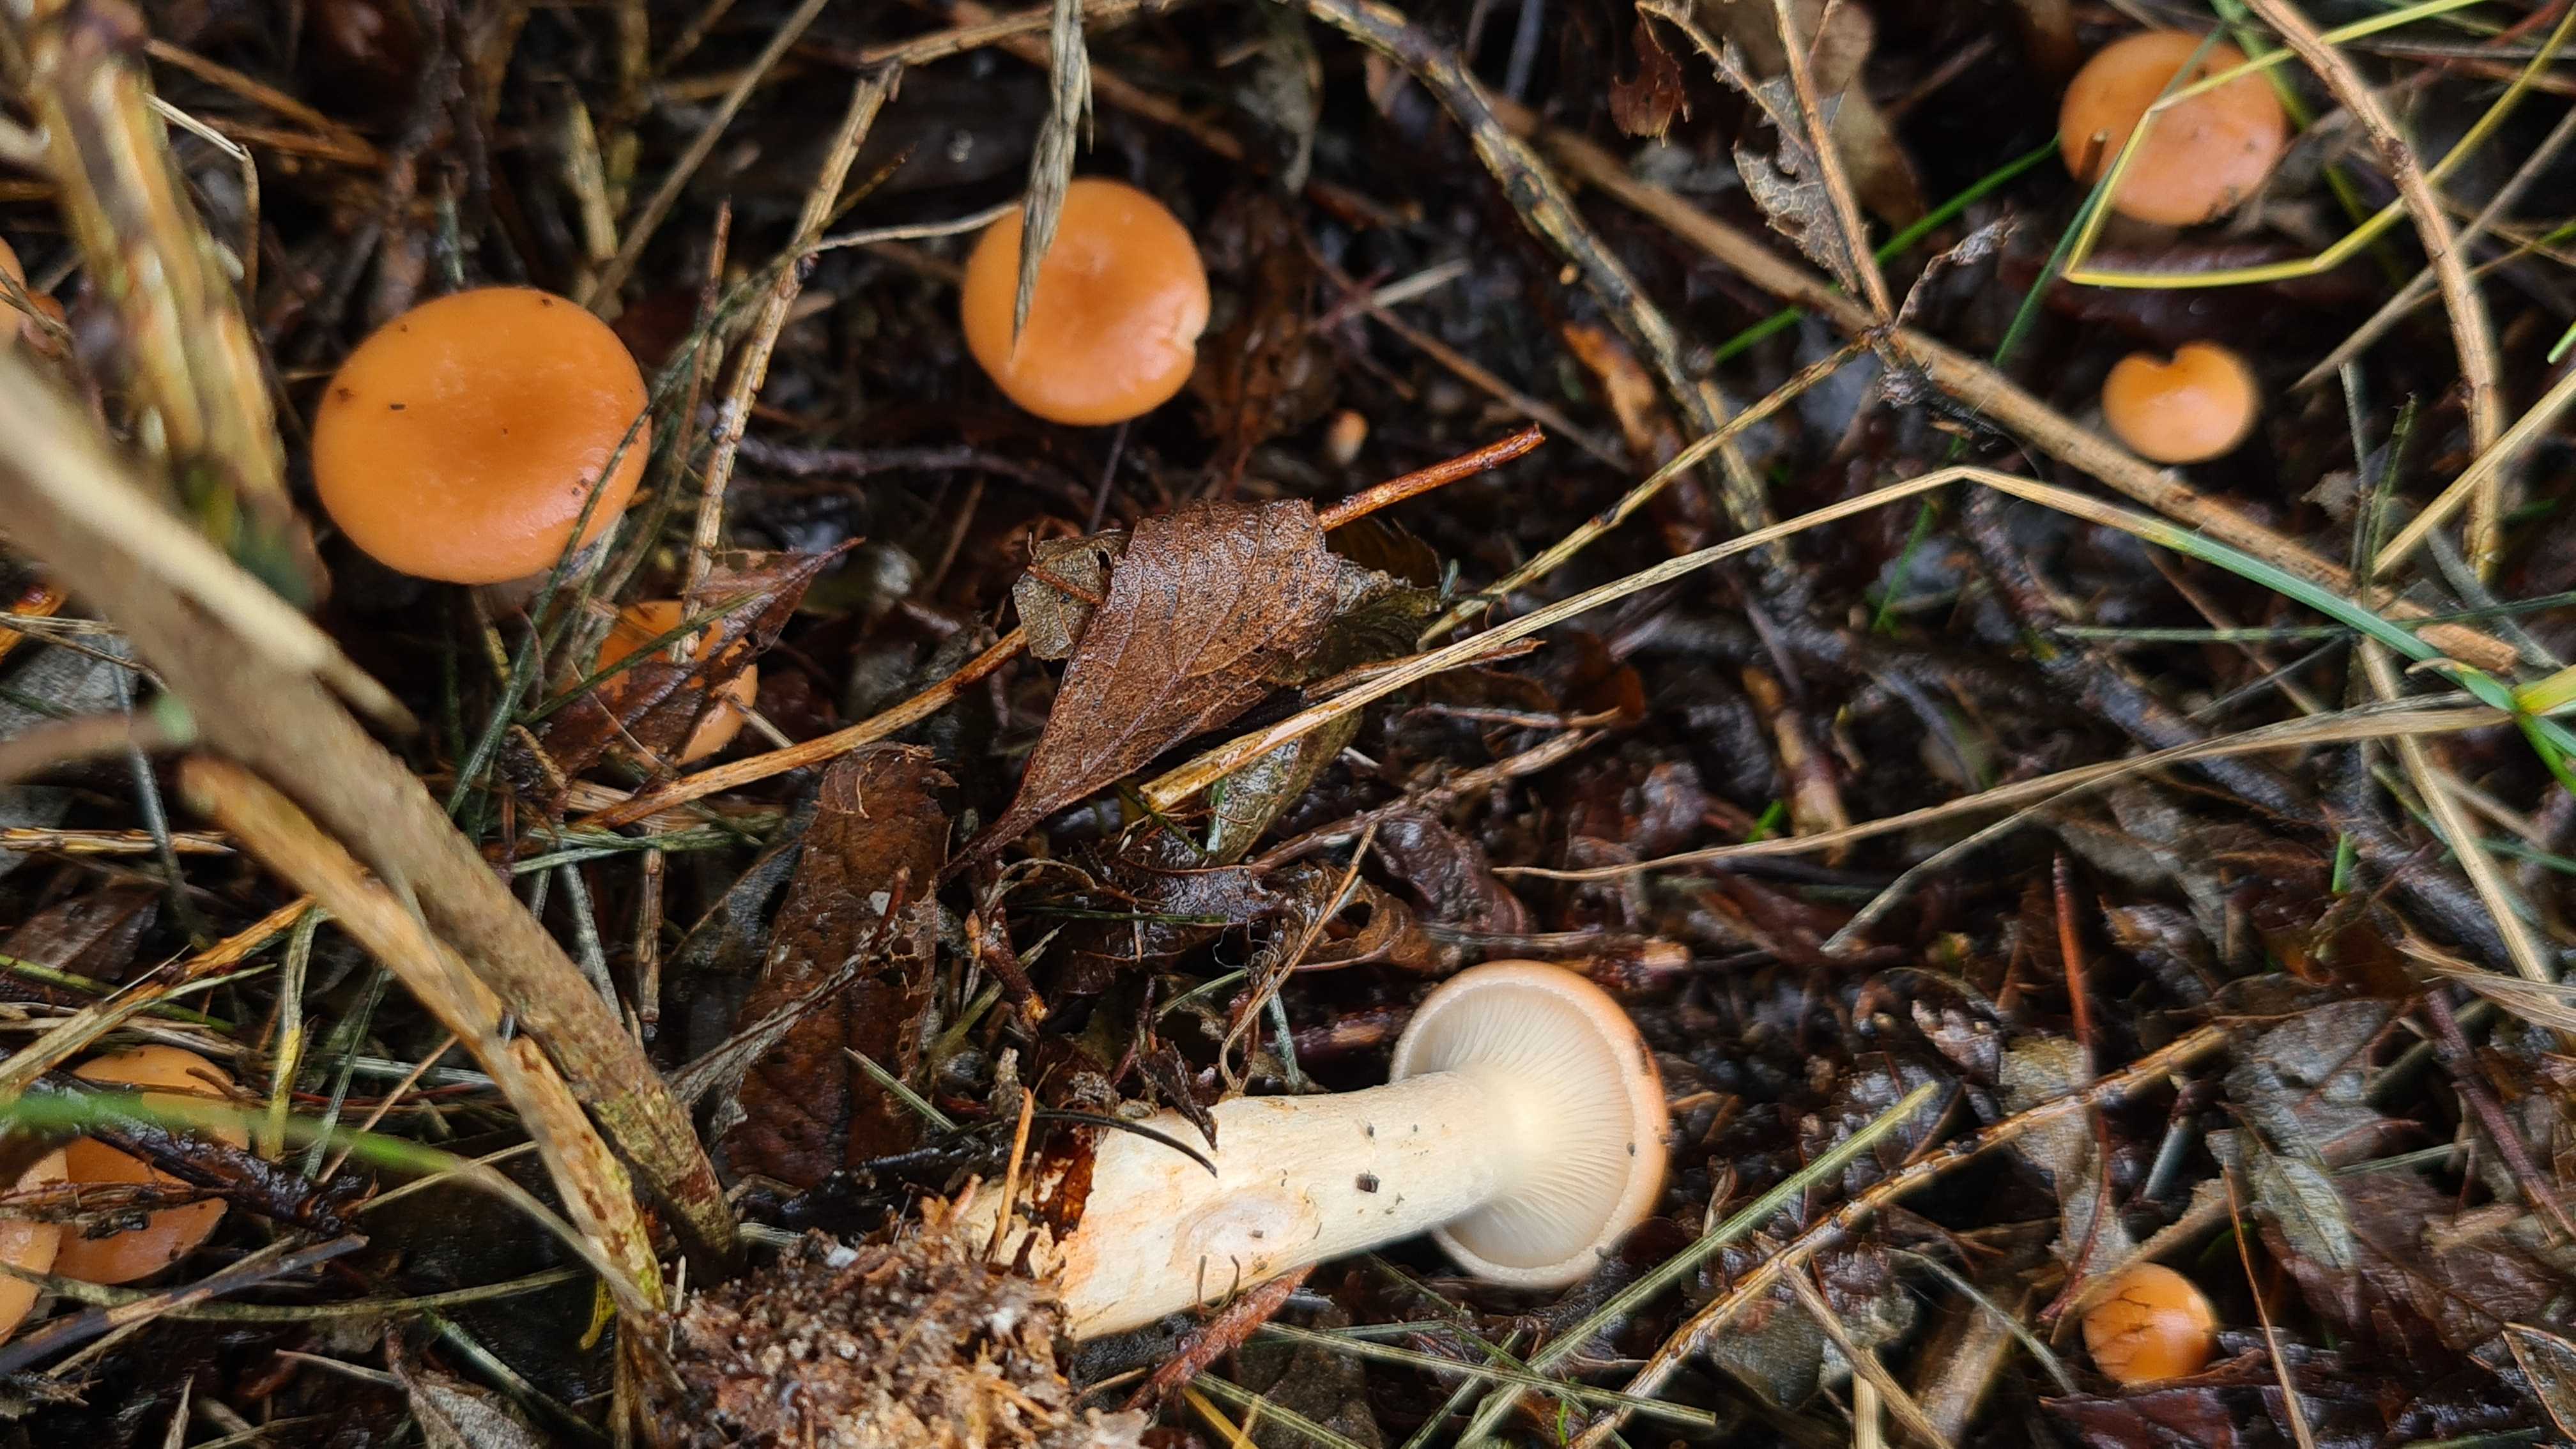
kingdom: Fungi
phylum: Basidiomycota
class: Agaricomycetes
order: Agaricales
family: Tricholomataceae
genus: Paralepista
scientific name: Paralepista flaccida
